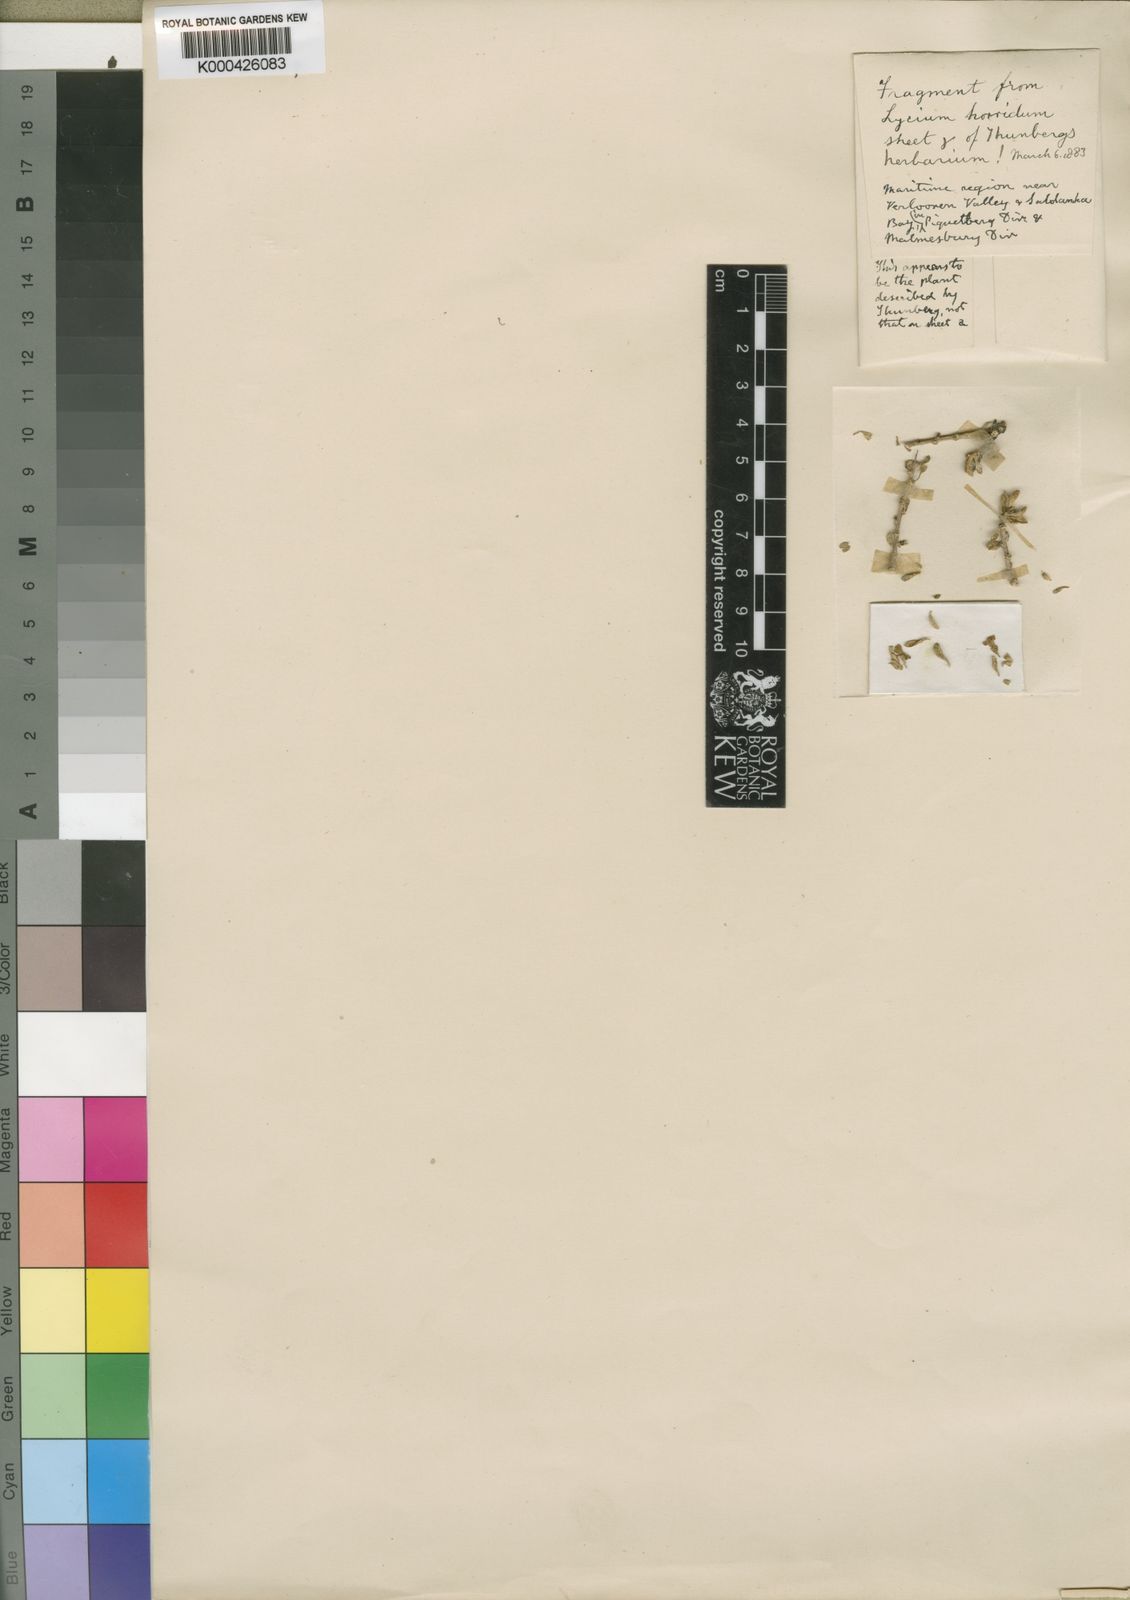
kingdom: Plantae
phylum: Tracheophyta
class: Magnoliopsida
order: Solanales
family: Solanaceae
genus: Lycium
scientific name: Lycium horridum
